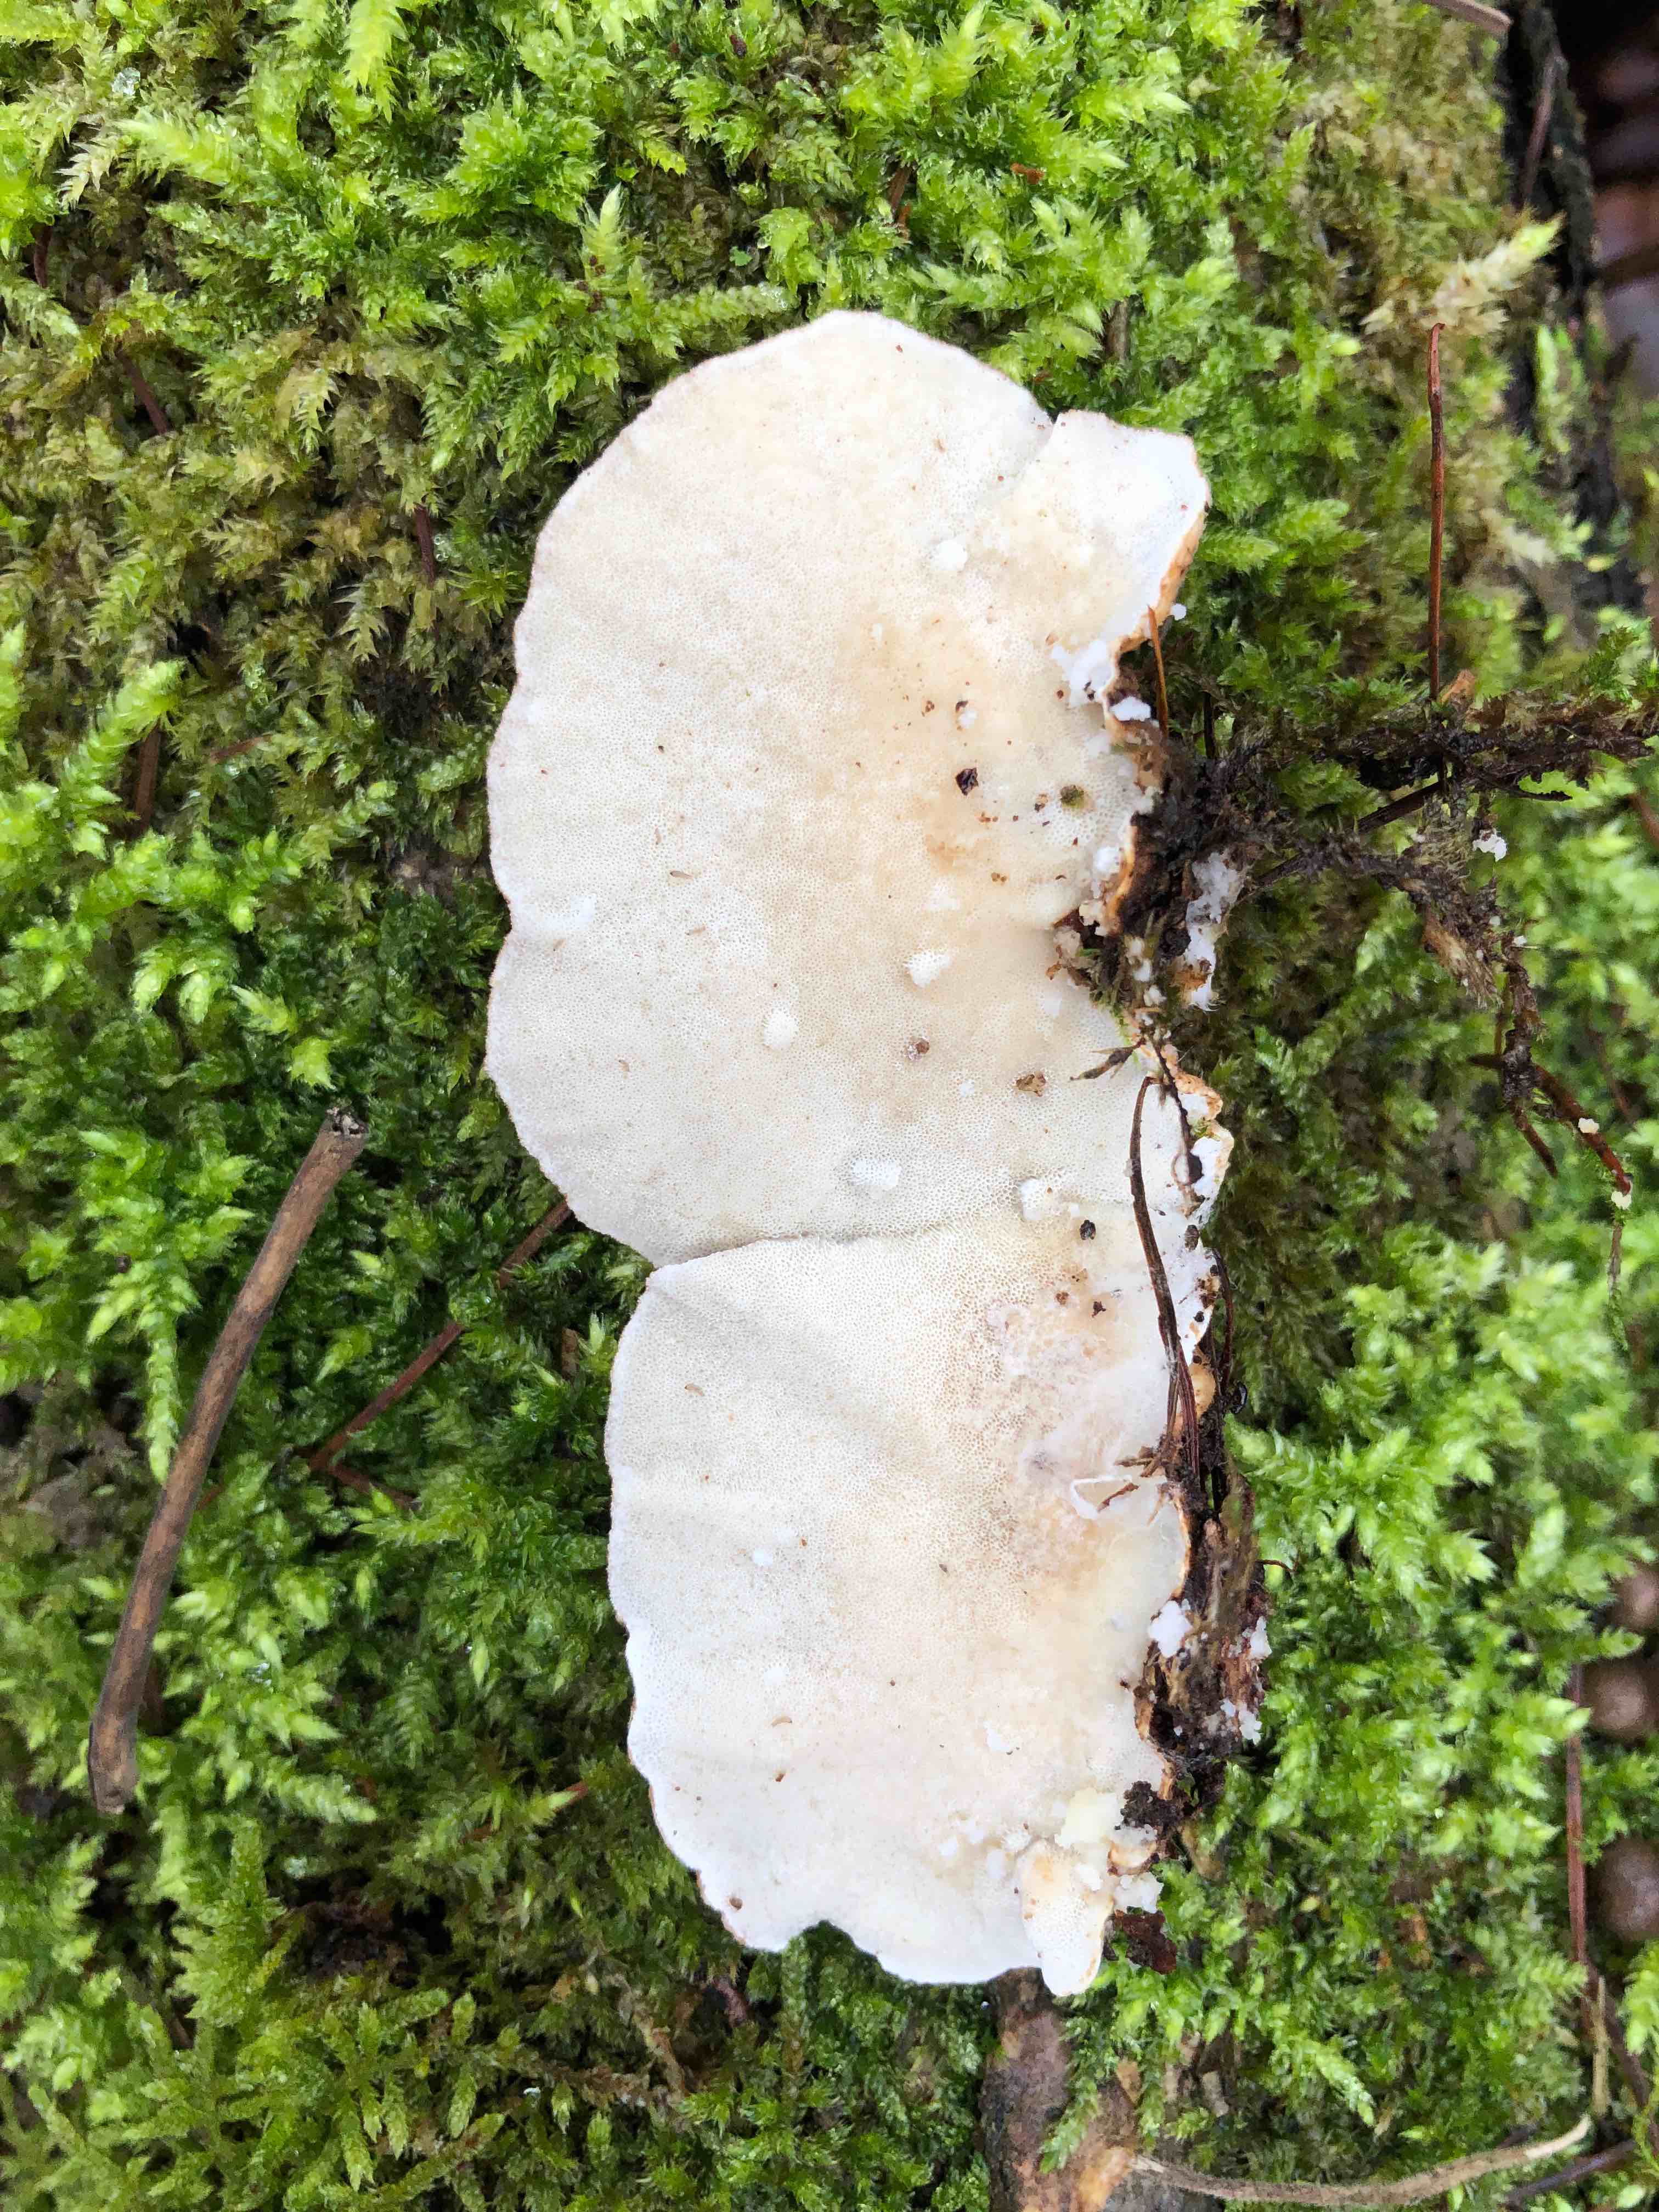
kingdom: Fungi
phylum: Basidiomycota
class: Agaricomycetes
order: Polyporales
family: Polyporaceae
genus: Trametes
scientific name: Trametes versicolor
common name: broget læderporesvamp
